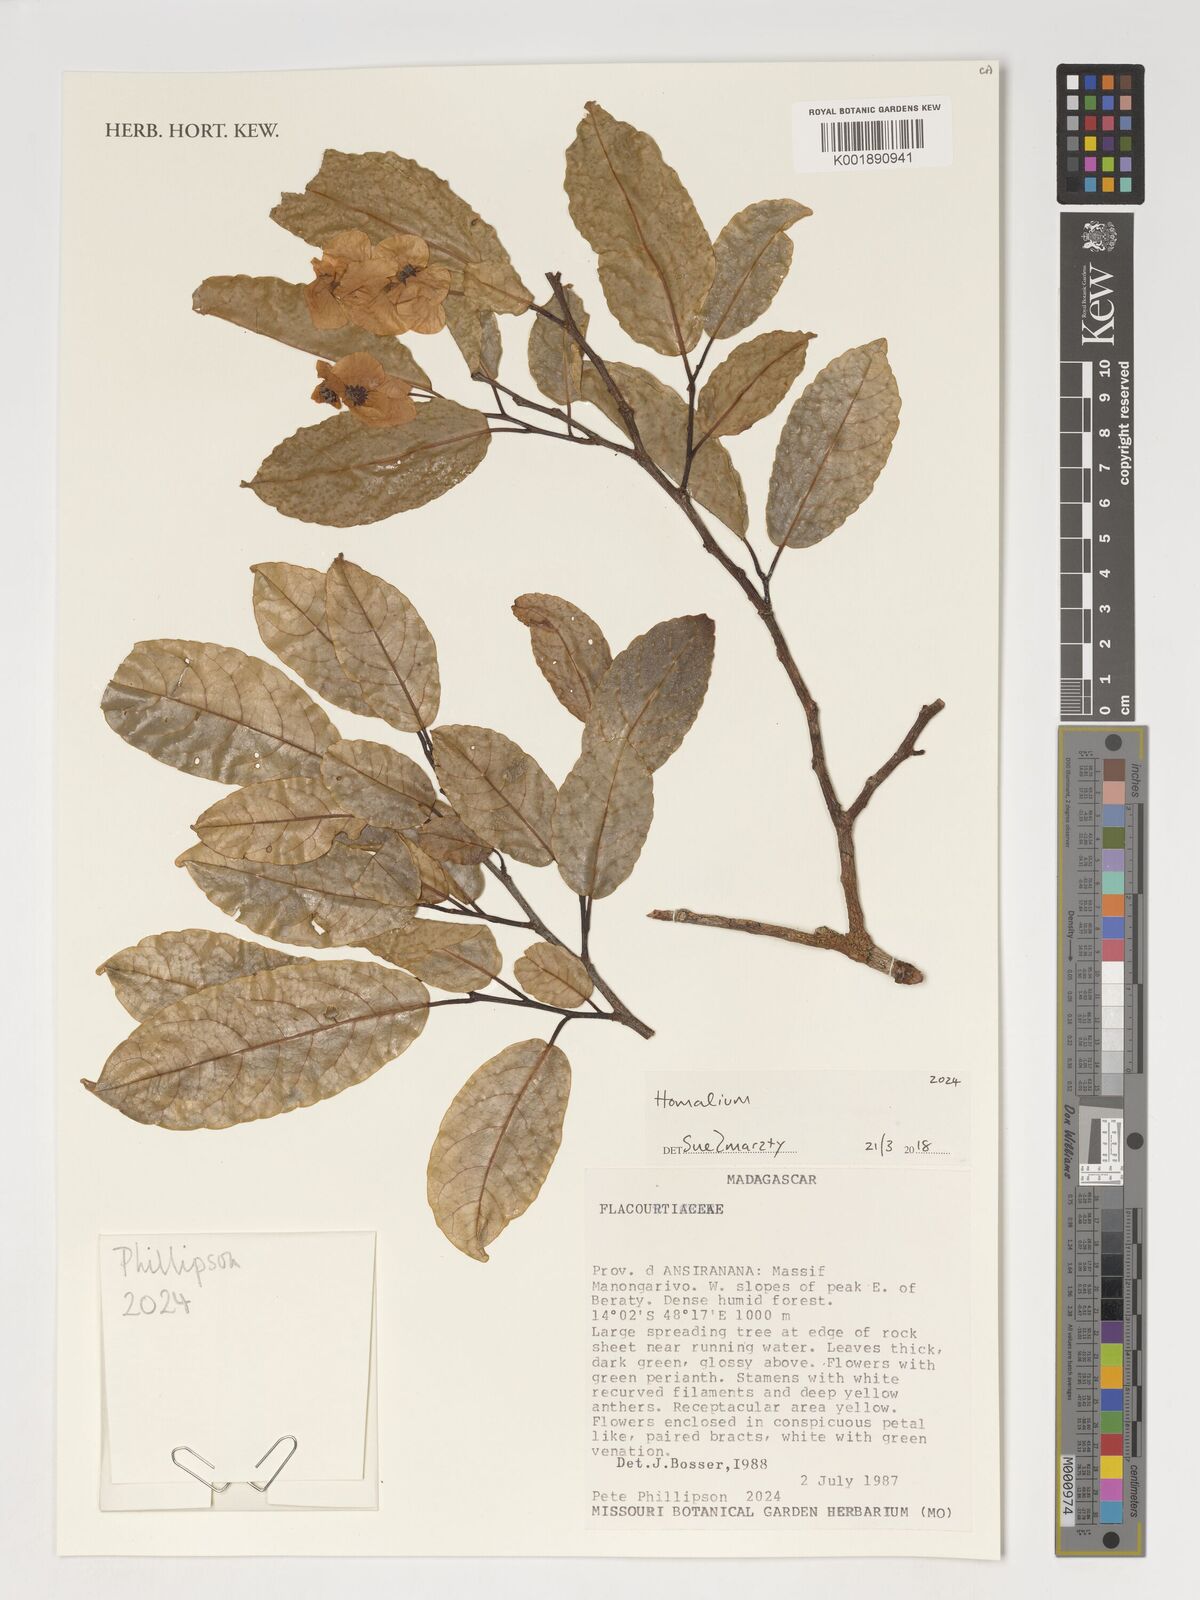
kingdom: Plantae
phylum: Tracheophyta
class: Magnoliopsida
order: Malpighiales
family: Salicaceae
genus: Homalium
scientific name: Homalium
